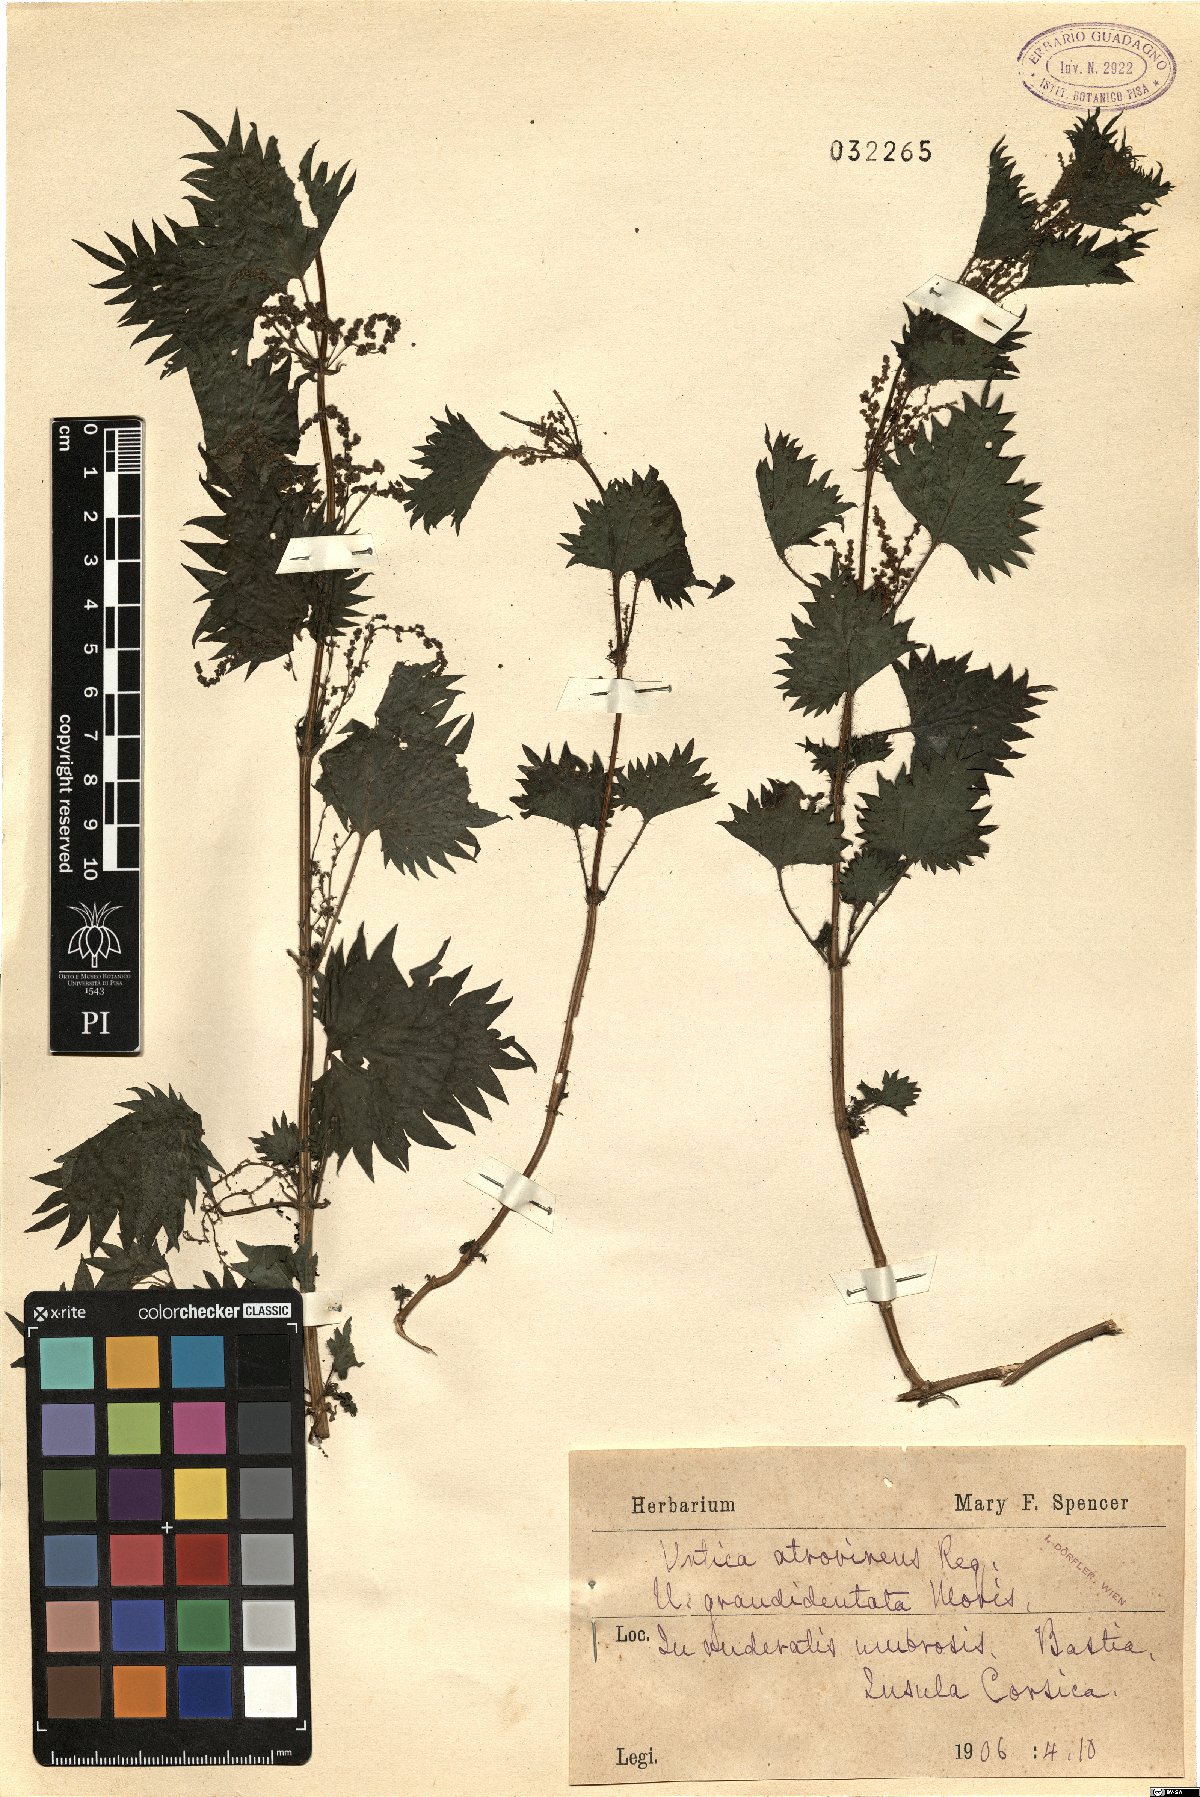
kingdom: Plantae
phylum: Tracheophyta
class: Magnoliopsida
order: Rosales
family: Urticaceae
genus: Urtica
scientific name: Urtica atrovirens
